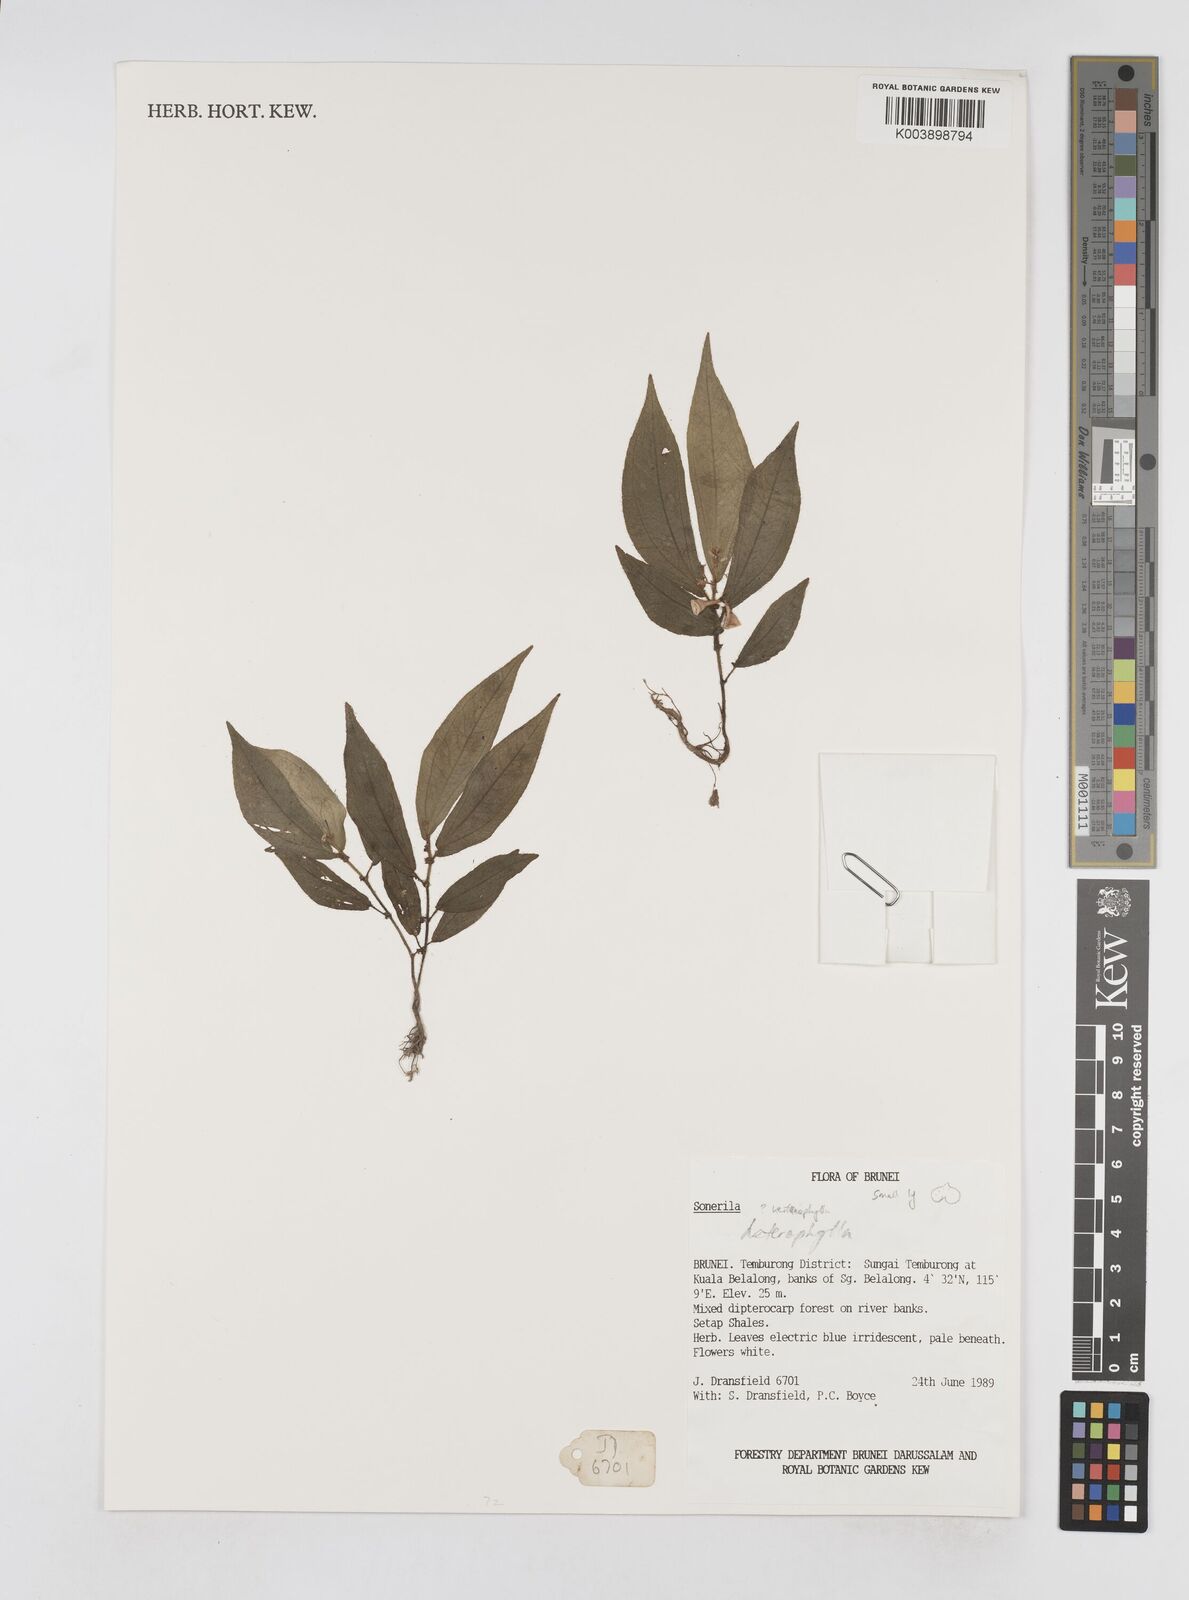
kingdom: Plantae
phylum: Tracheophyta
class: Magnoliopsida
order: Myrtales
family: Melastomataceae
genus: Sonerila
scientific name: Sonerila
